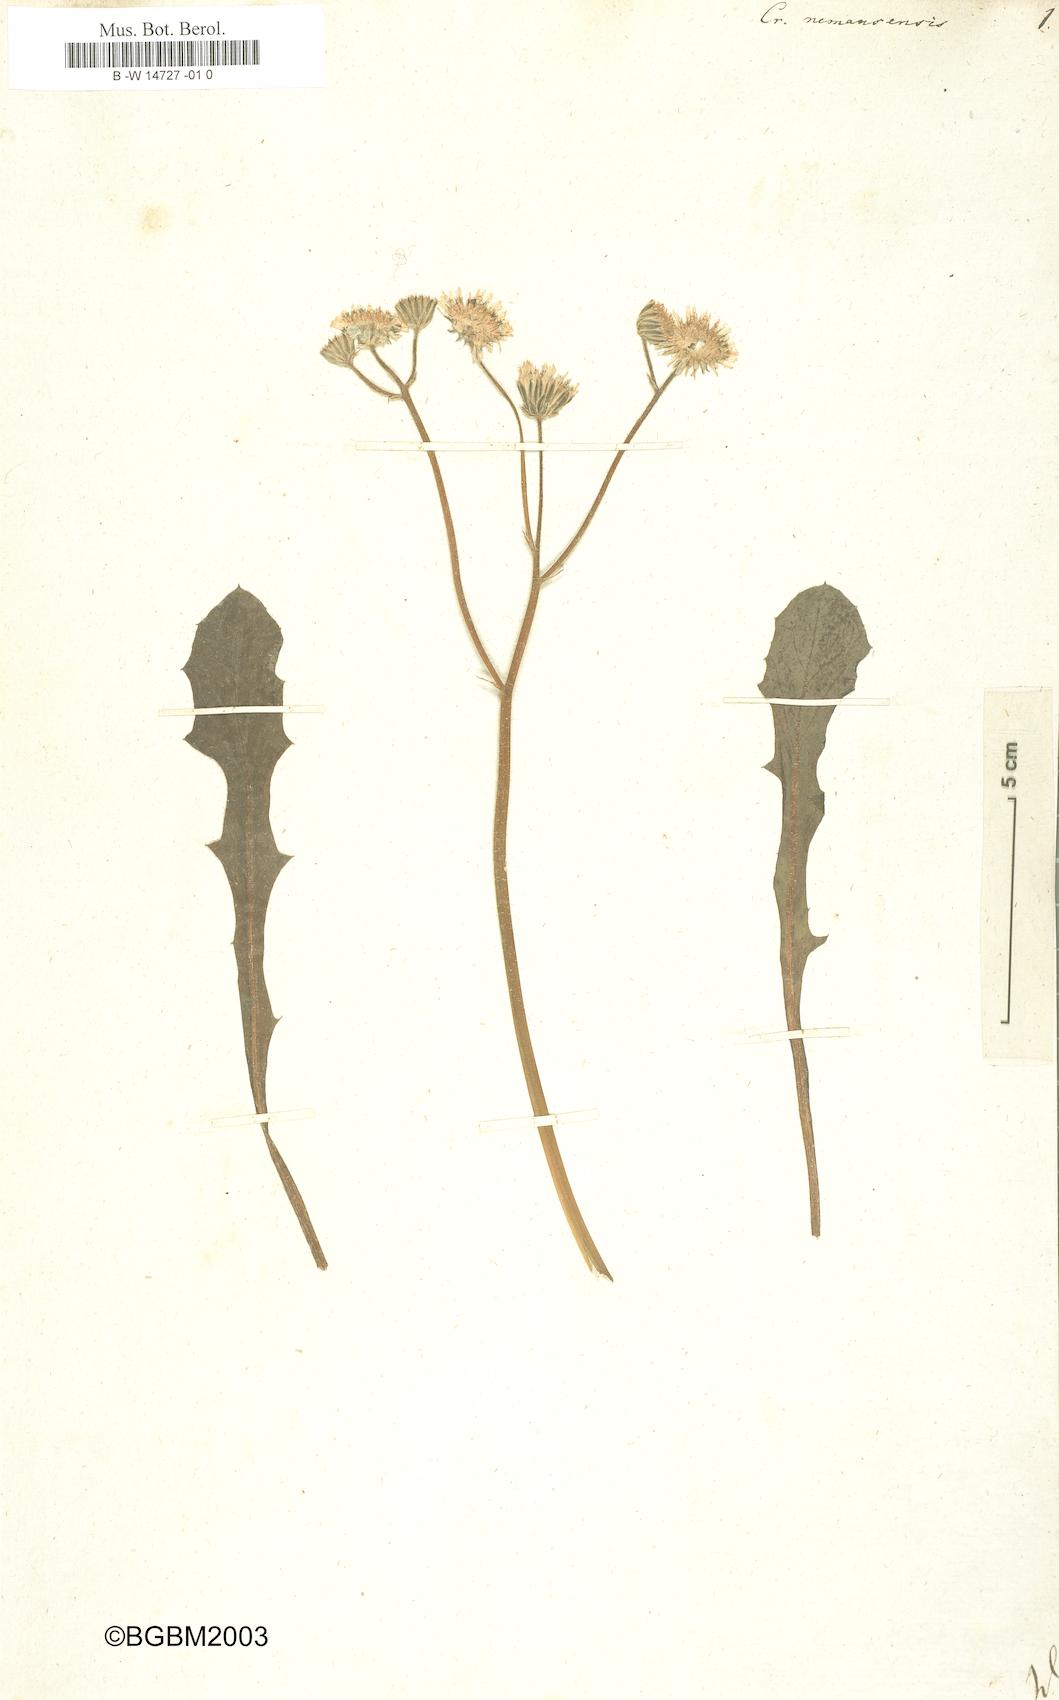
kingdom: Plantae
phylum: Tracheophyta
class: Magnoliopsida
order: Asterales
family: Asteraceae
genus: Crepis
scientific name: Crepis nemausensis
